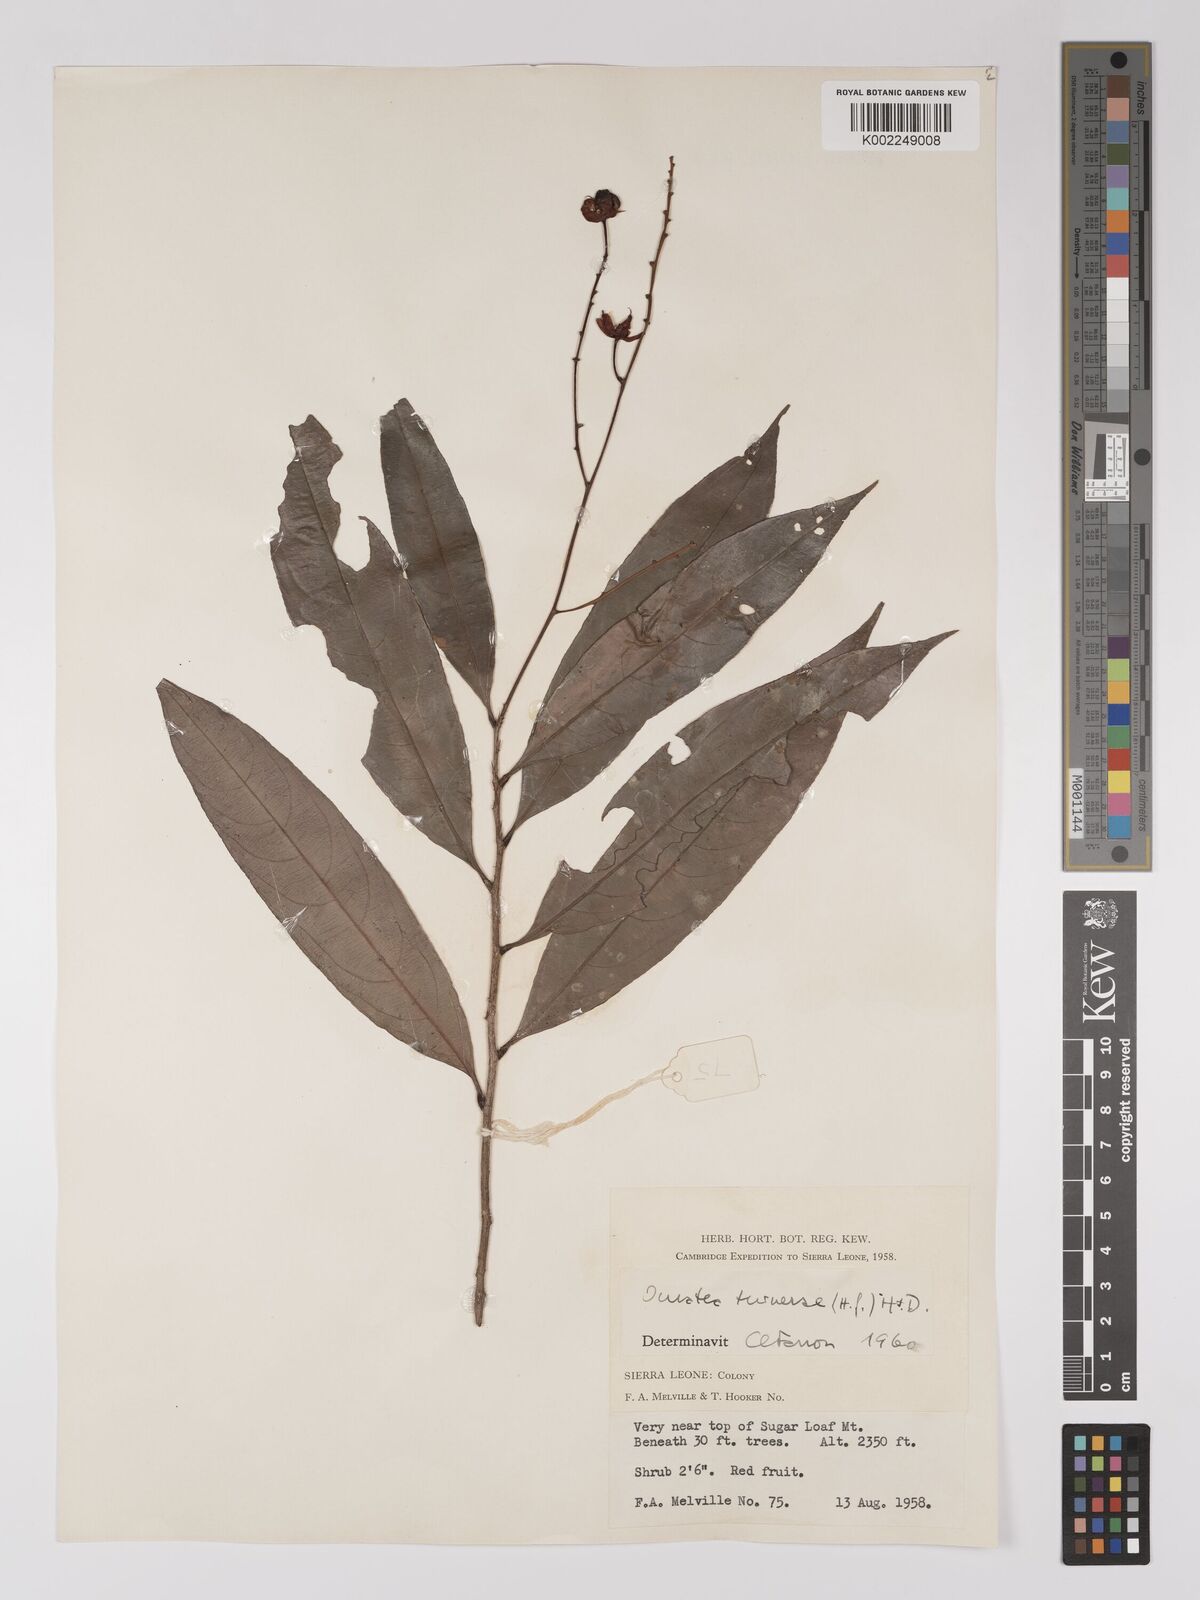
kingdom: Plantae
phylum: Tracheophyta
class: Magnoliopsida
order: Malpighiales
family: Ochnaceae
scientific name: Ochnaceae
